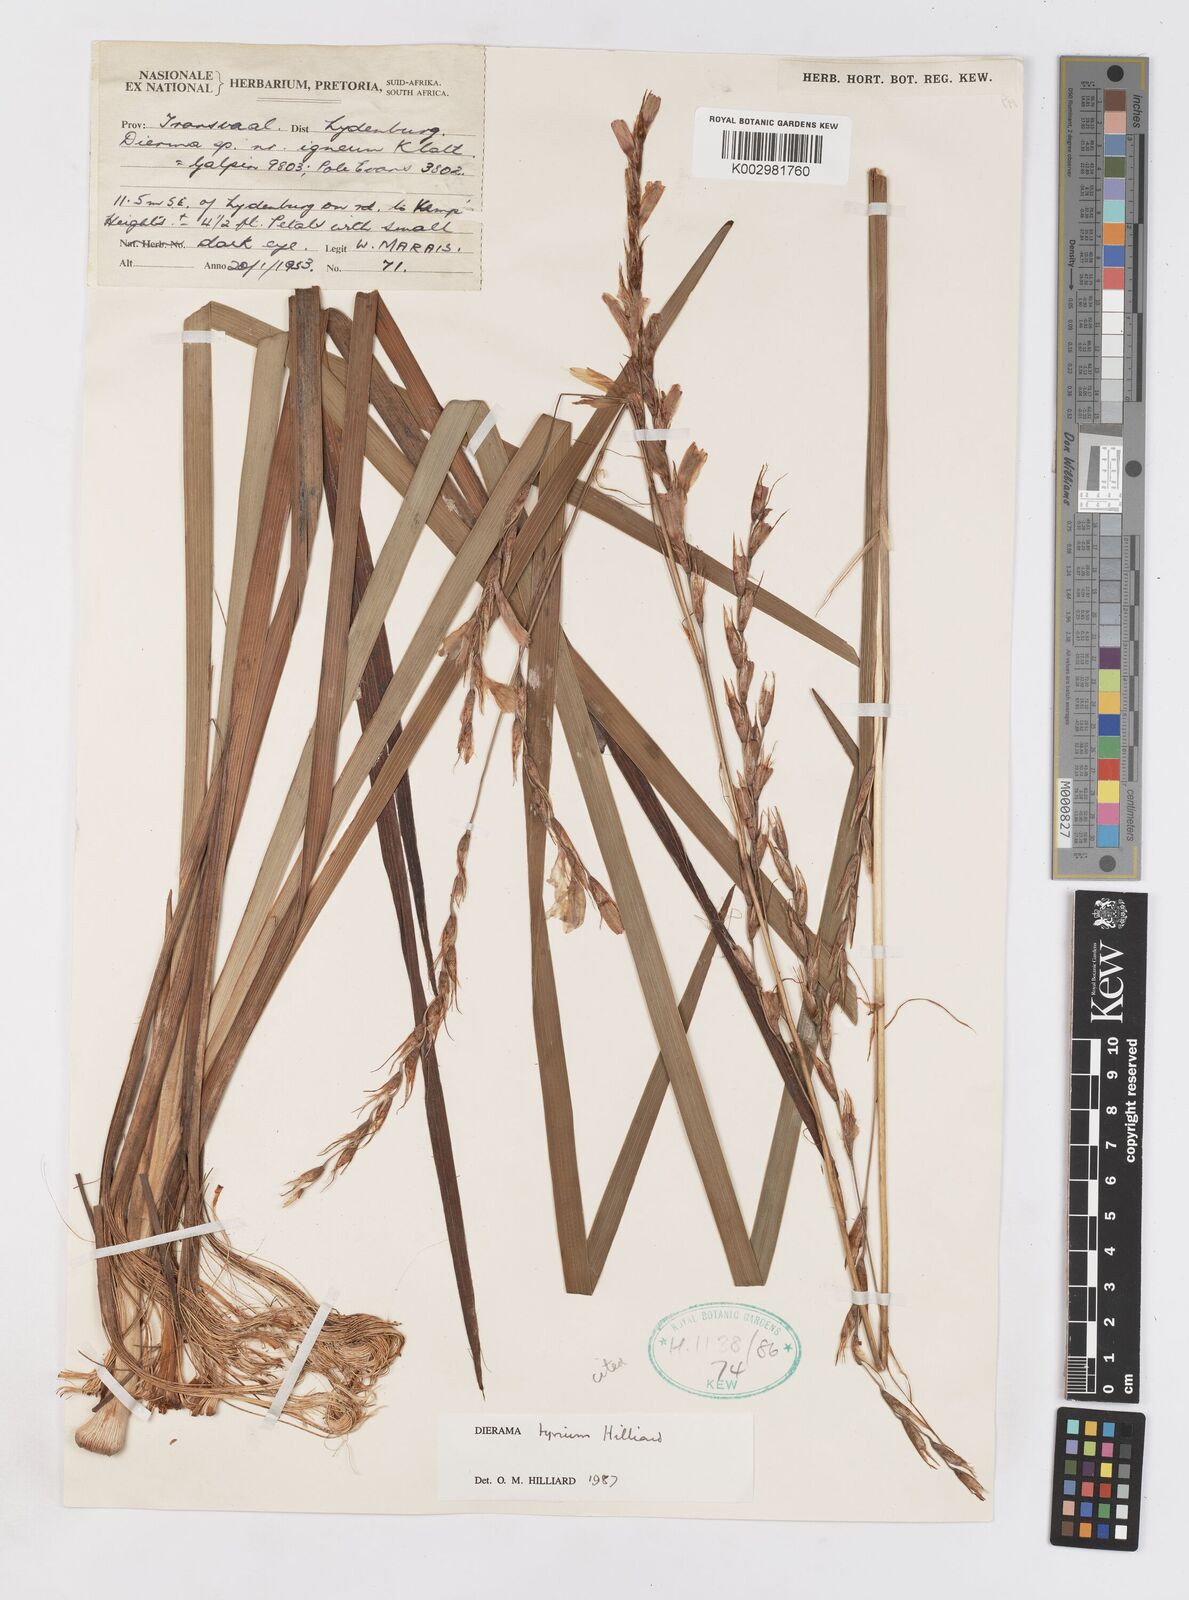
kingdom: Plantae
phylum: Tracheophyta
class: Liliopsida
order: Asparagales
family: Iridaceae
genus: Dierama
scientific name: Dierama tyrium
